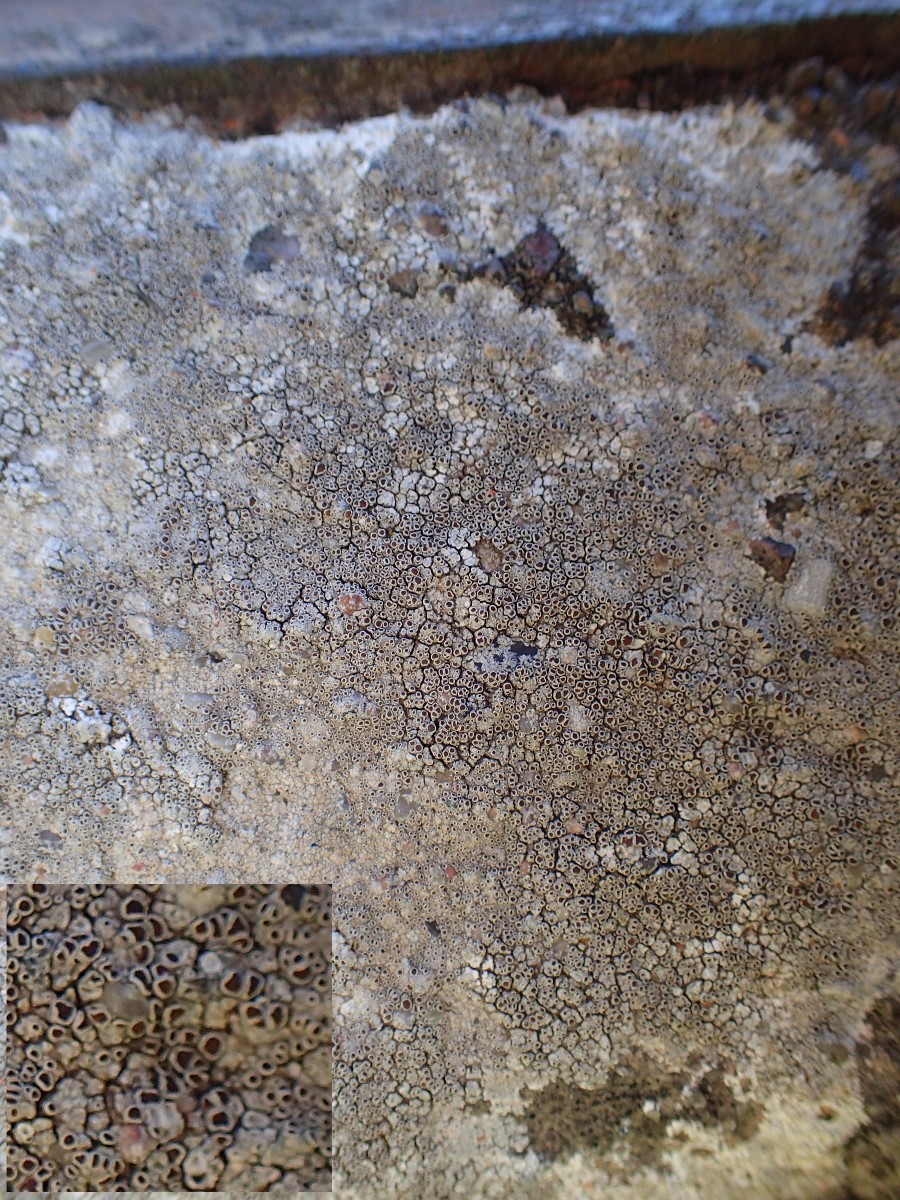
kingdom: Fungi
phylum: Ascomycota
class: Lecanoromycetes
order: Lecanorales
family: Lecanoraceae
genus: Lecanora
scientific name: Lecanora campestris
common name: mur-kantskivelav
